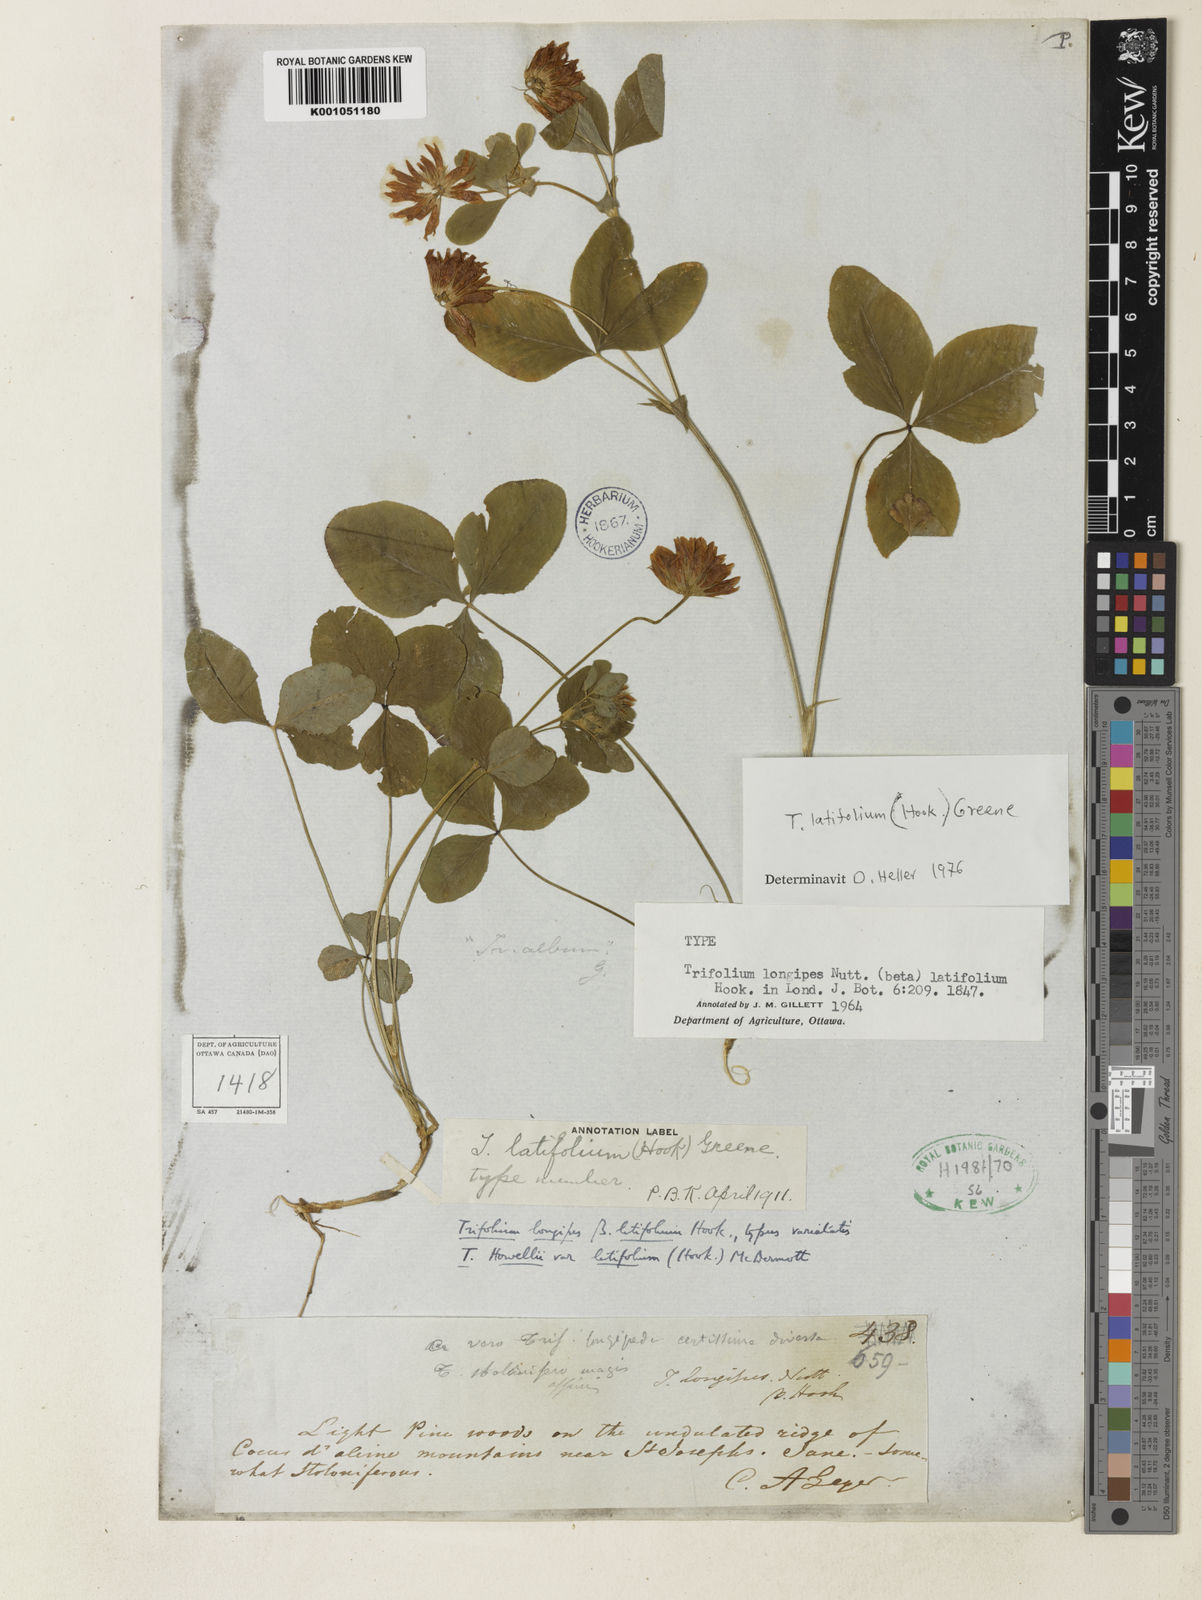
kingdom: Plantae
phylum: Tracheophyta
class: Magnoliopsida
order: Fabales
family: Fabaceae
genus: Trifolium
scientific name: Trifolium howellii
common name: Howell's clover
